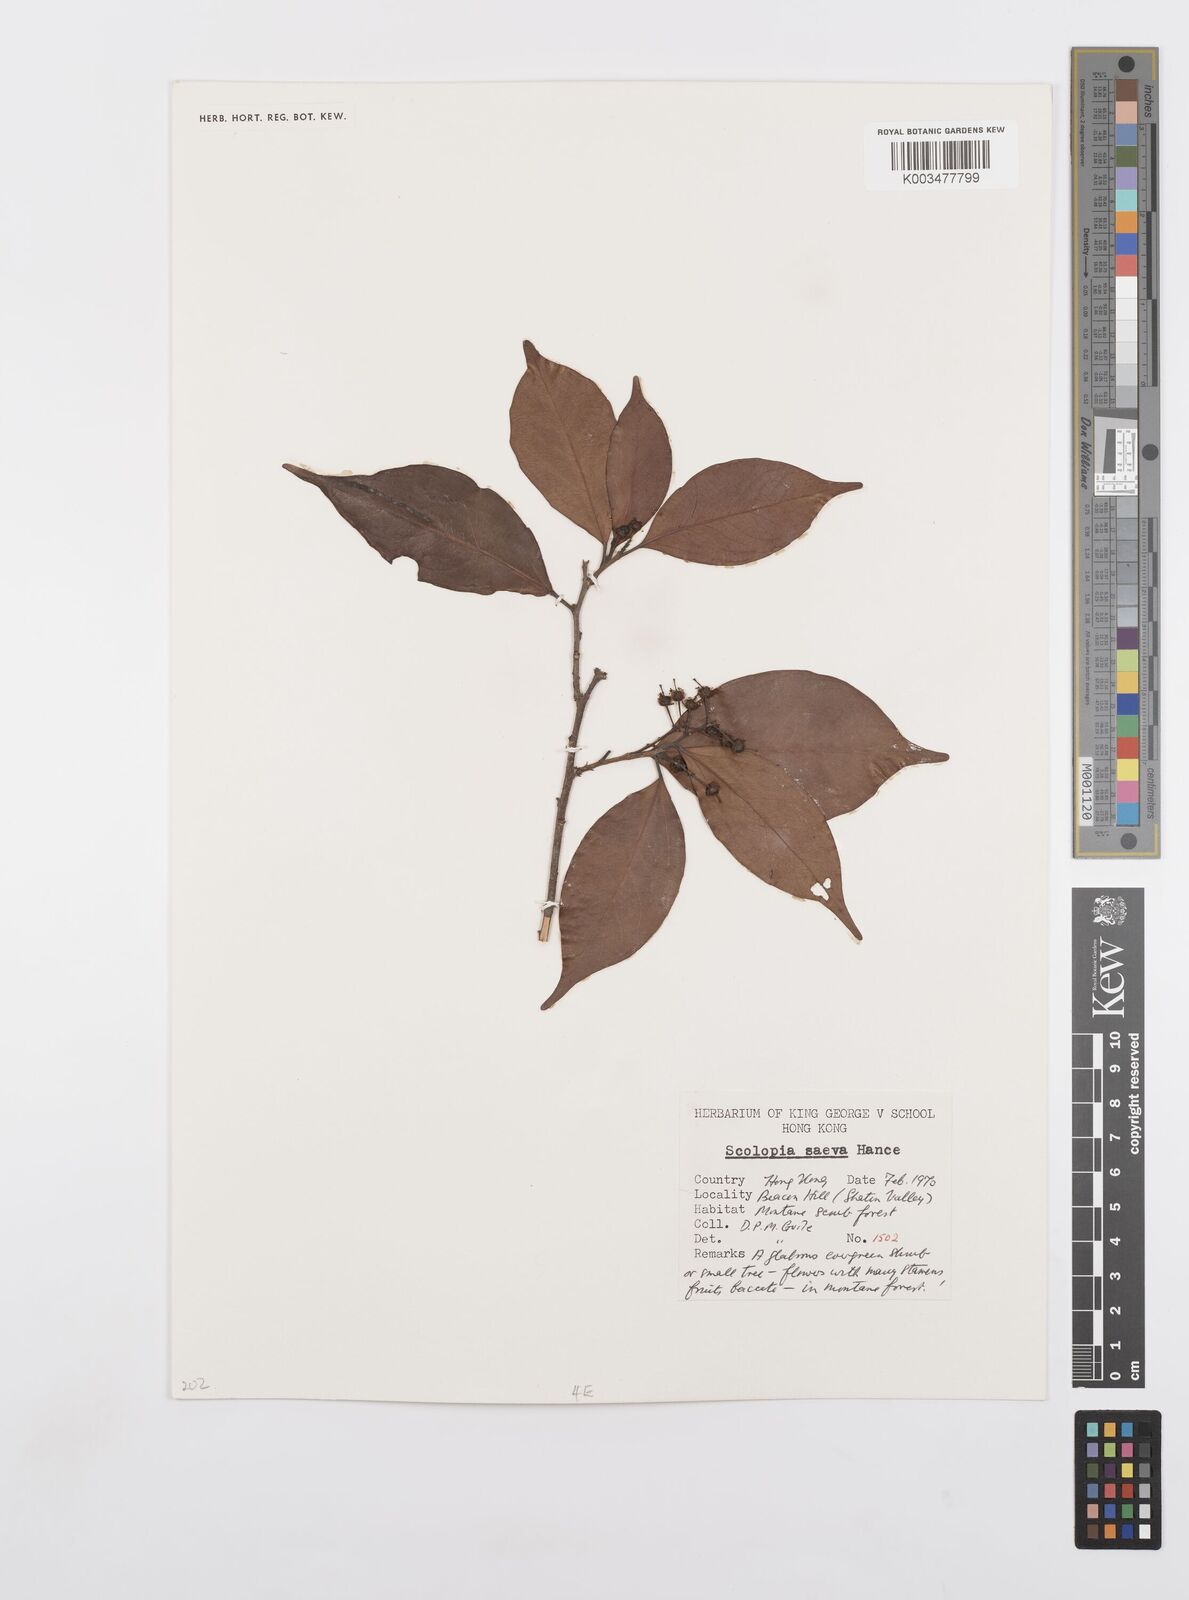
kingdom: Plantae
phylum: Tracheophyta
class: Magnoliopsida
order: Malpighiales
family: Salicaceae
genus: Scolopia
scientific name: Scolopia saeva
